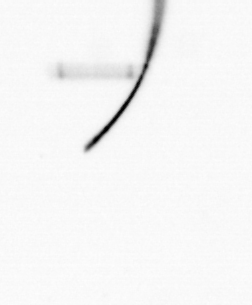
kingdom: Chromista
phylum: Ochrophyta
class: Bacillariophyceae
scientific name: Bacillariophyceae
